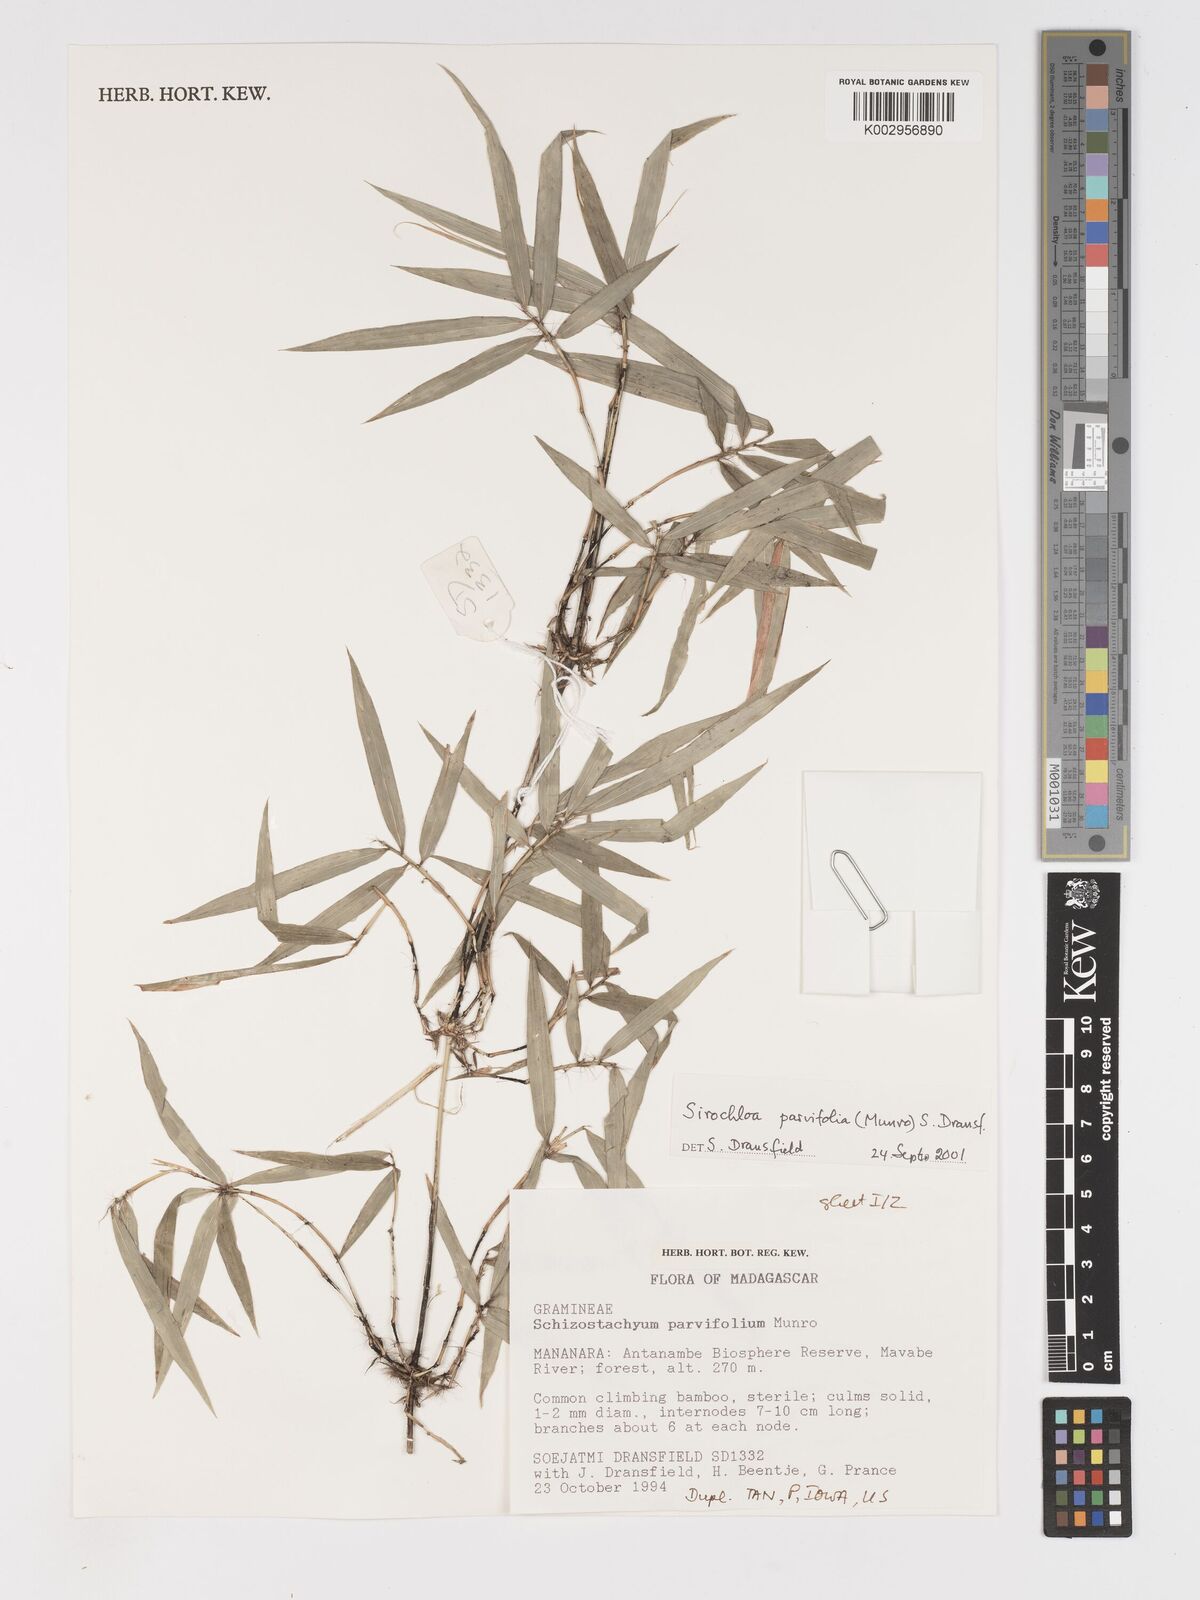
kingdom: Plantae
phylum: Tracheophyta
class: Liliopsida
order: Poales
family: Poaceae
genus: Sirochloa
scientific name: Sirochloa parvifolia
